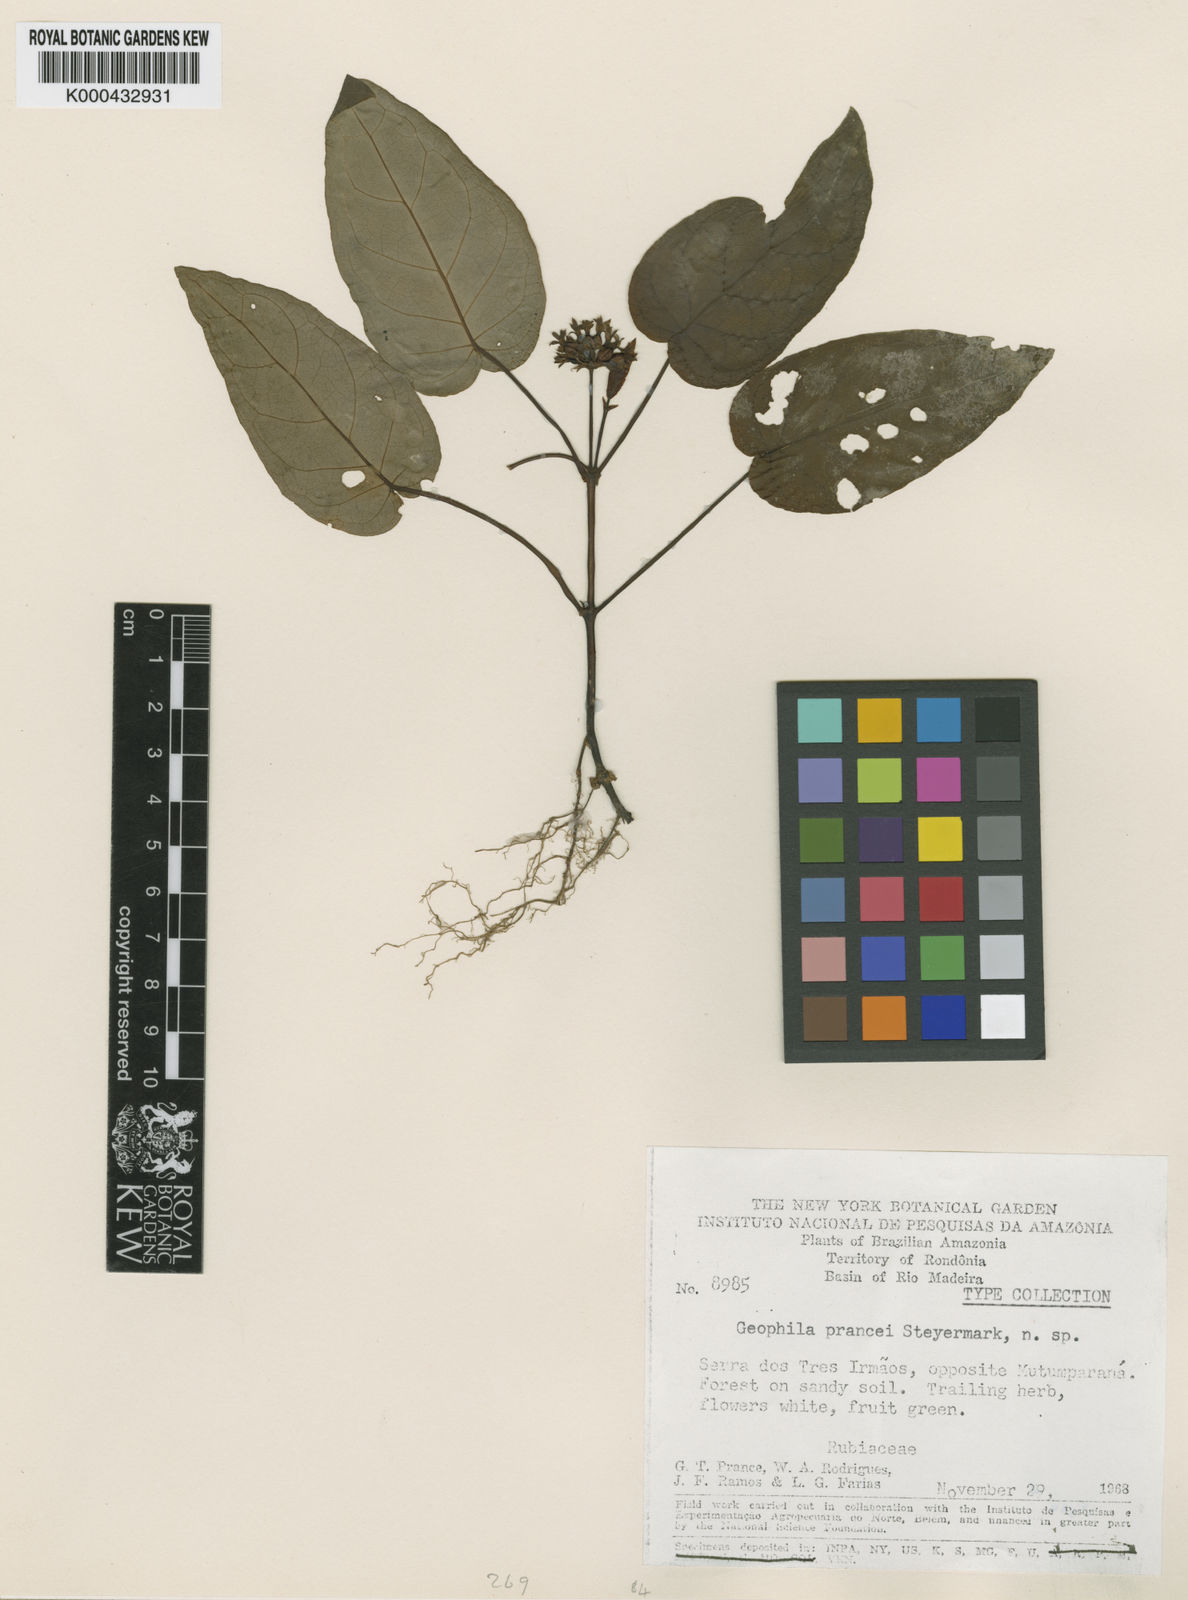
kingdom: Plantae
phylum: Tracheophyta
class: Magnoliopsida
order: Gentianales
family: Rubiaceae
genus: Geophila
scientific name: Geophila prancei
